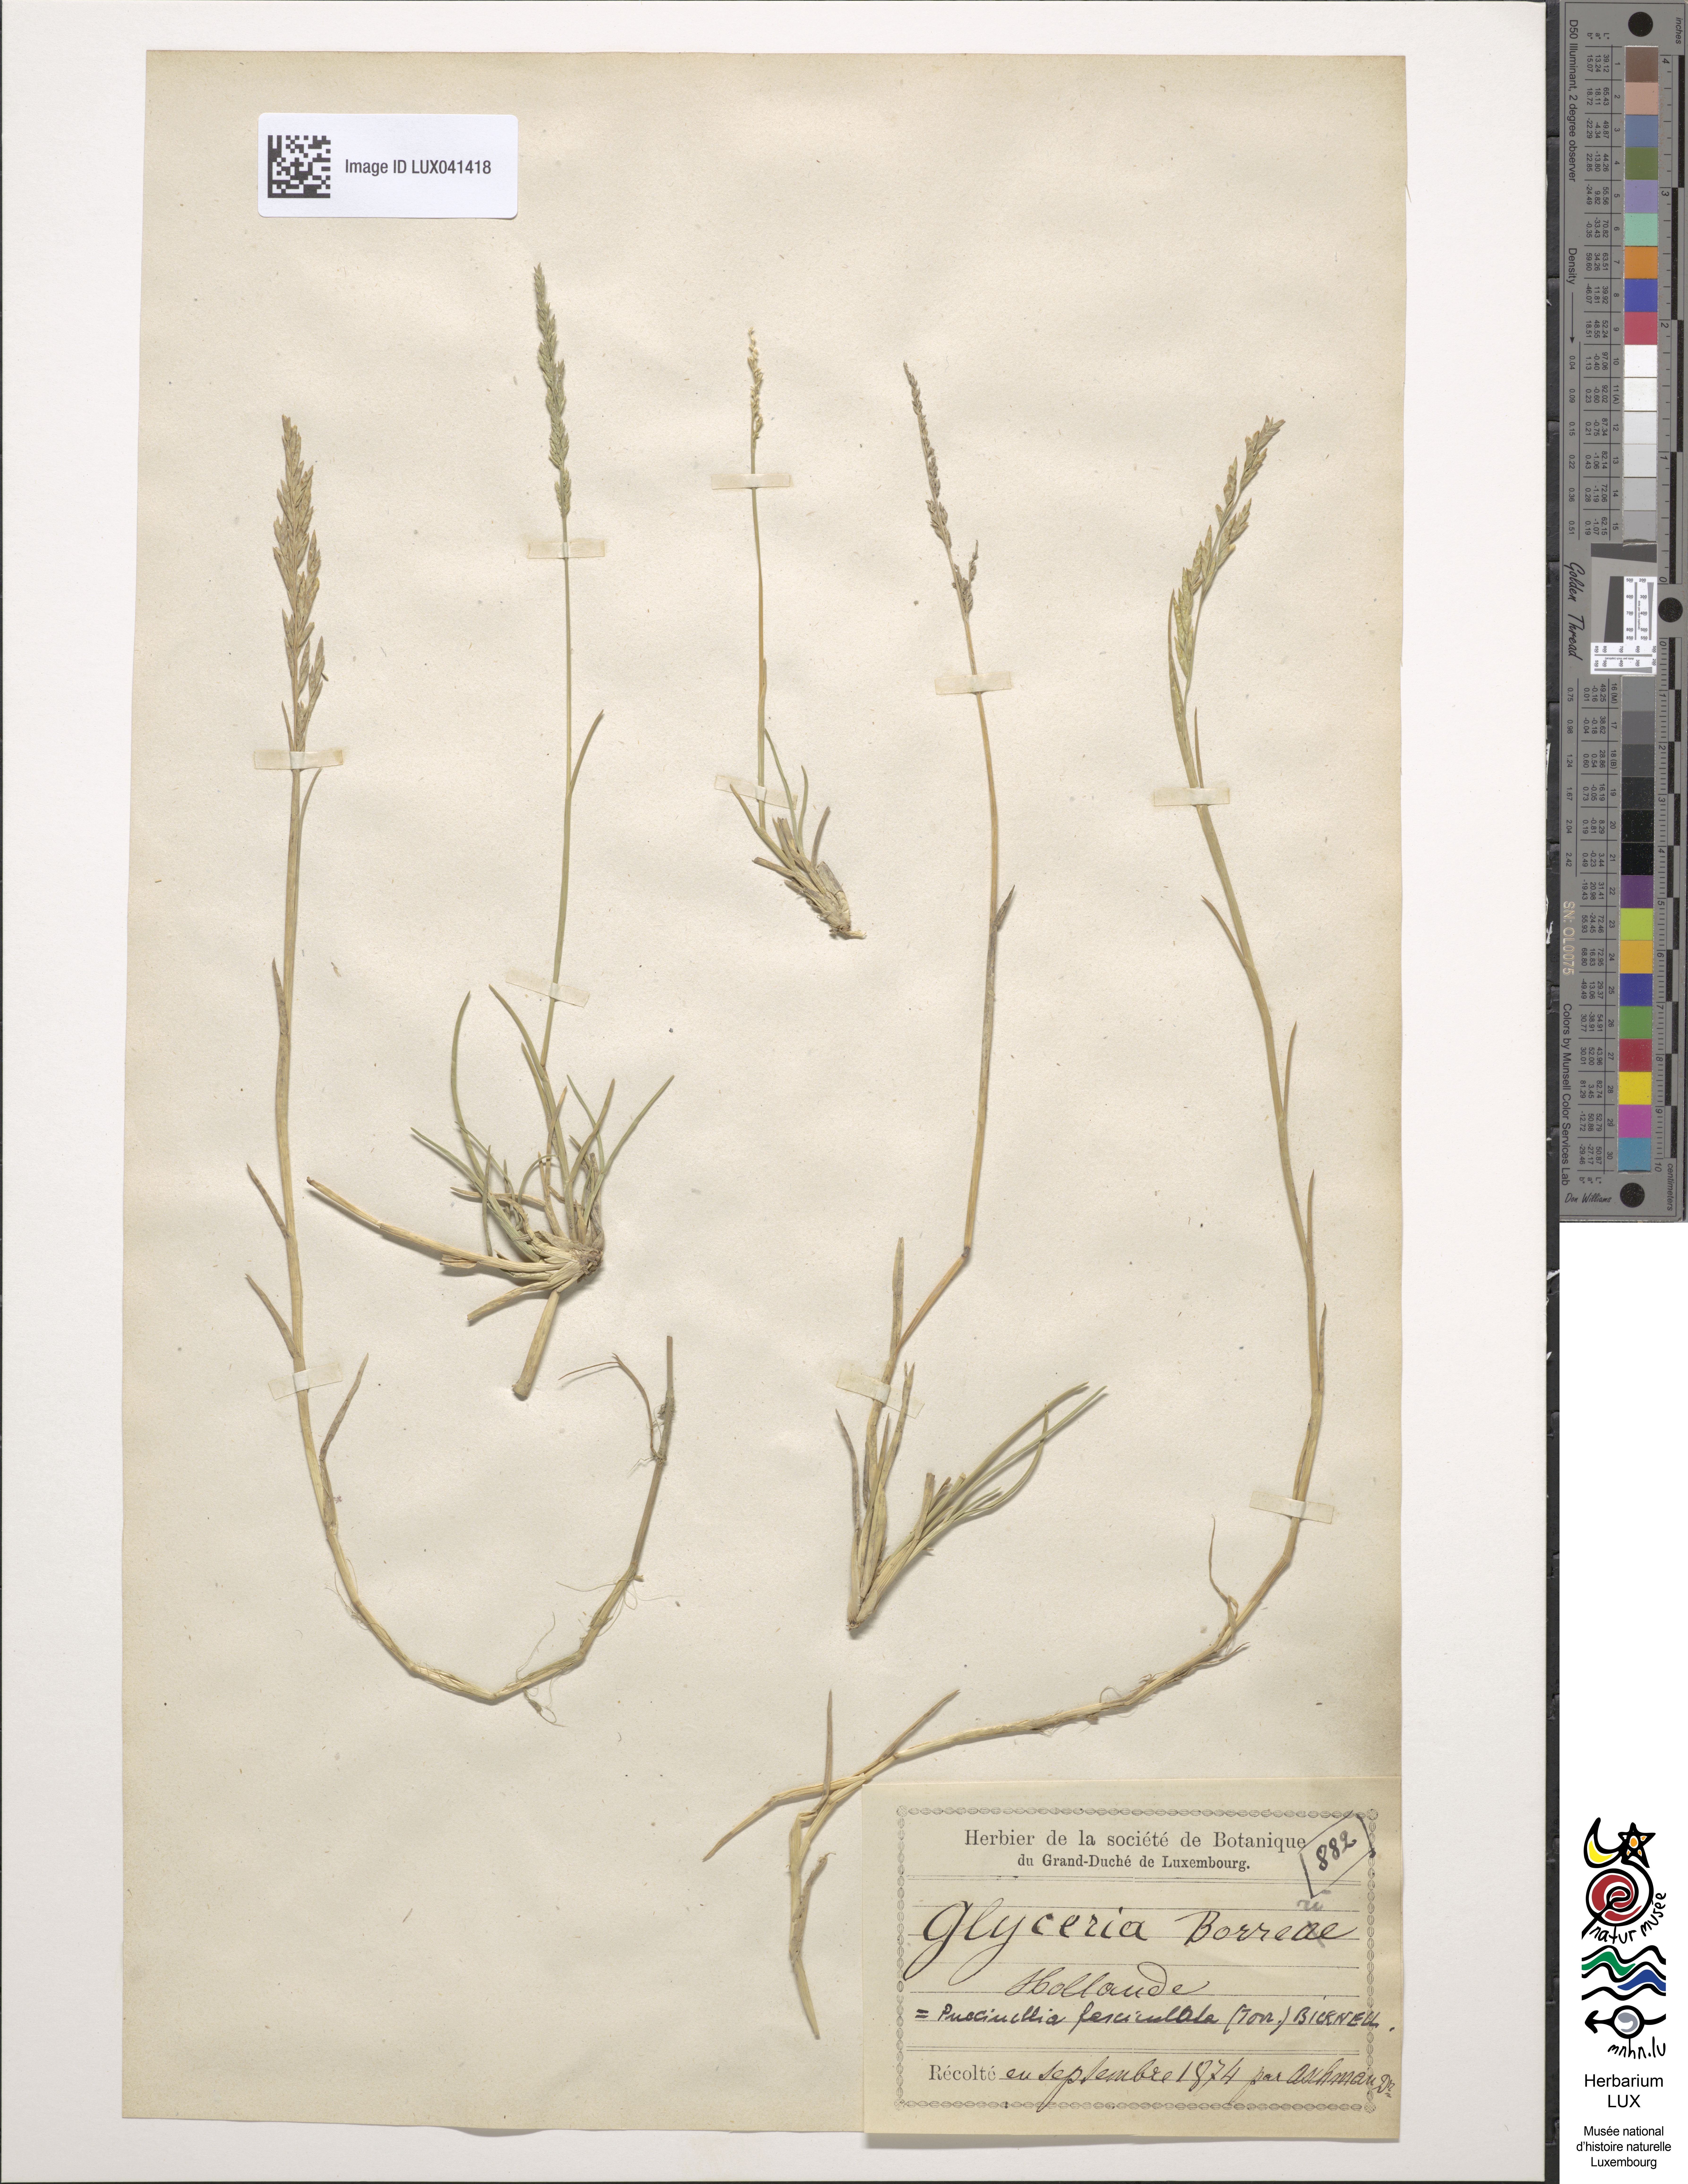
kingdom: Plantae
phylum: Tracheophyta
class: Liliopsida
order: Poales
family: Poaceae
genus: Puccinellia
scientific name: Puccinellia fasciculata
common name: Borrer's saltmarsh-grass
